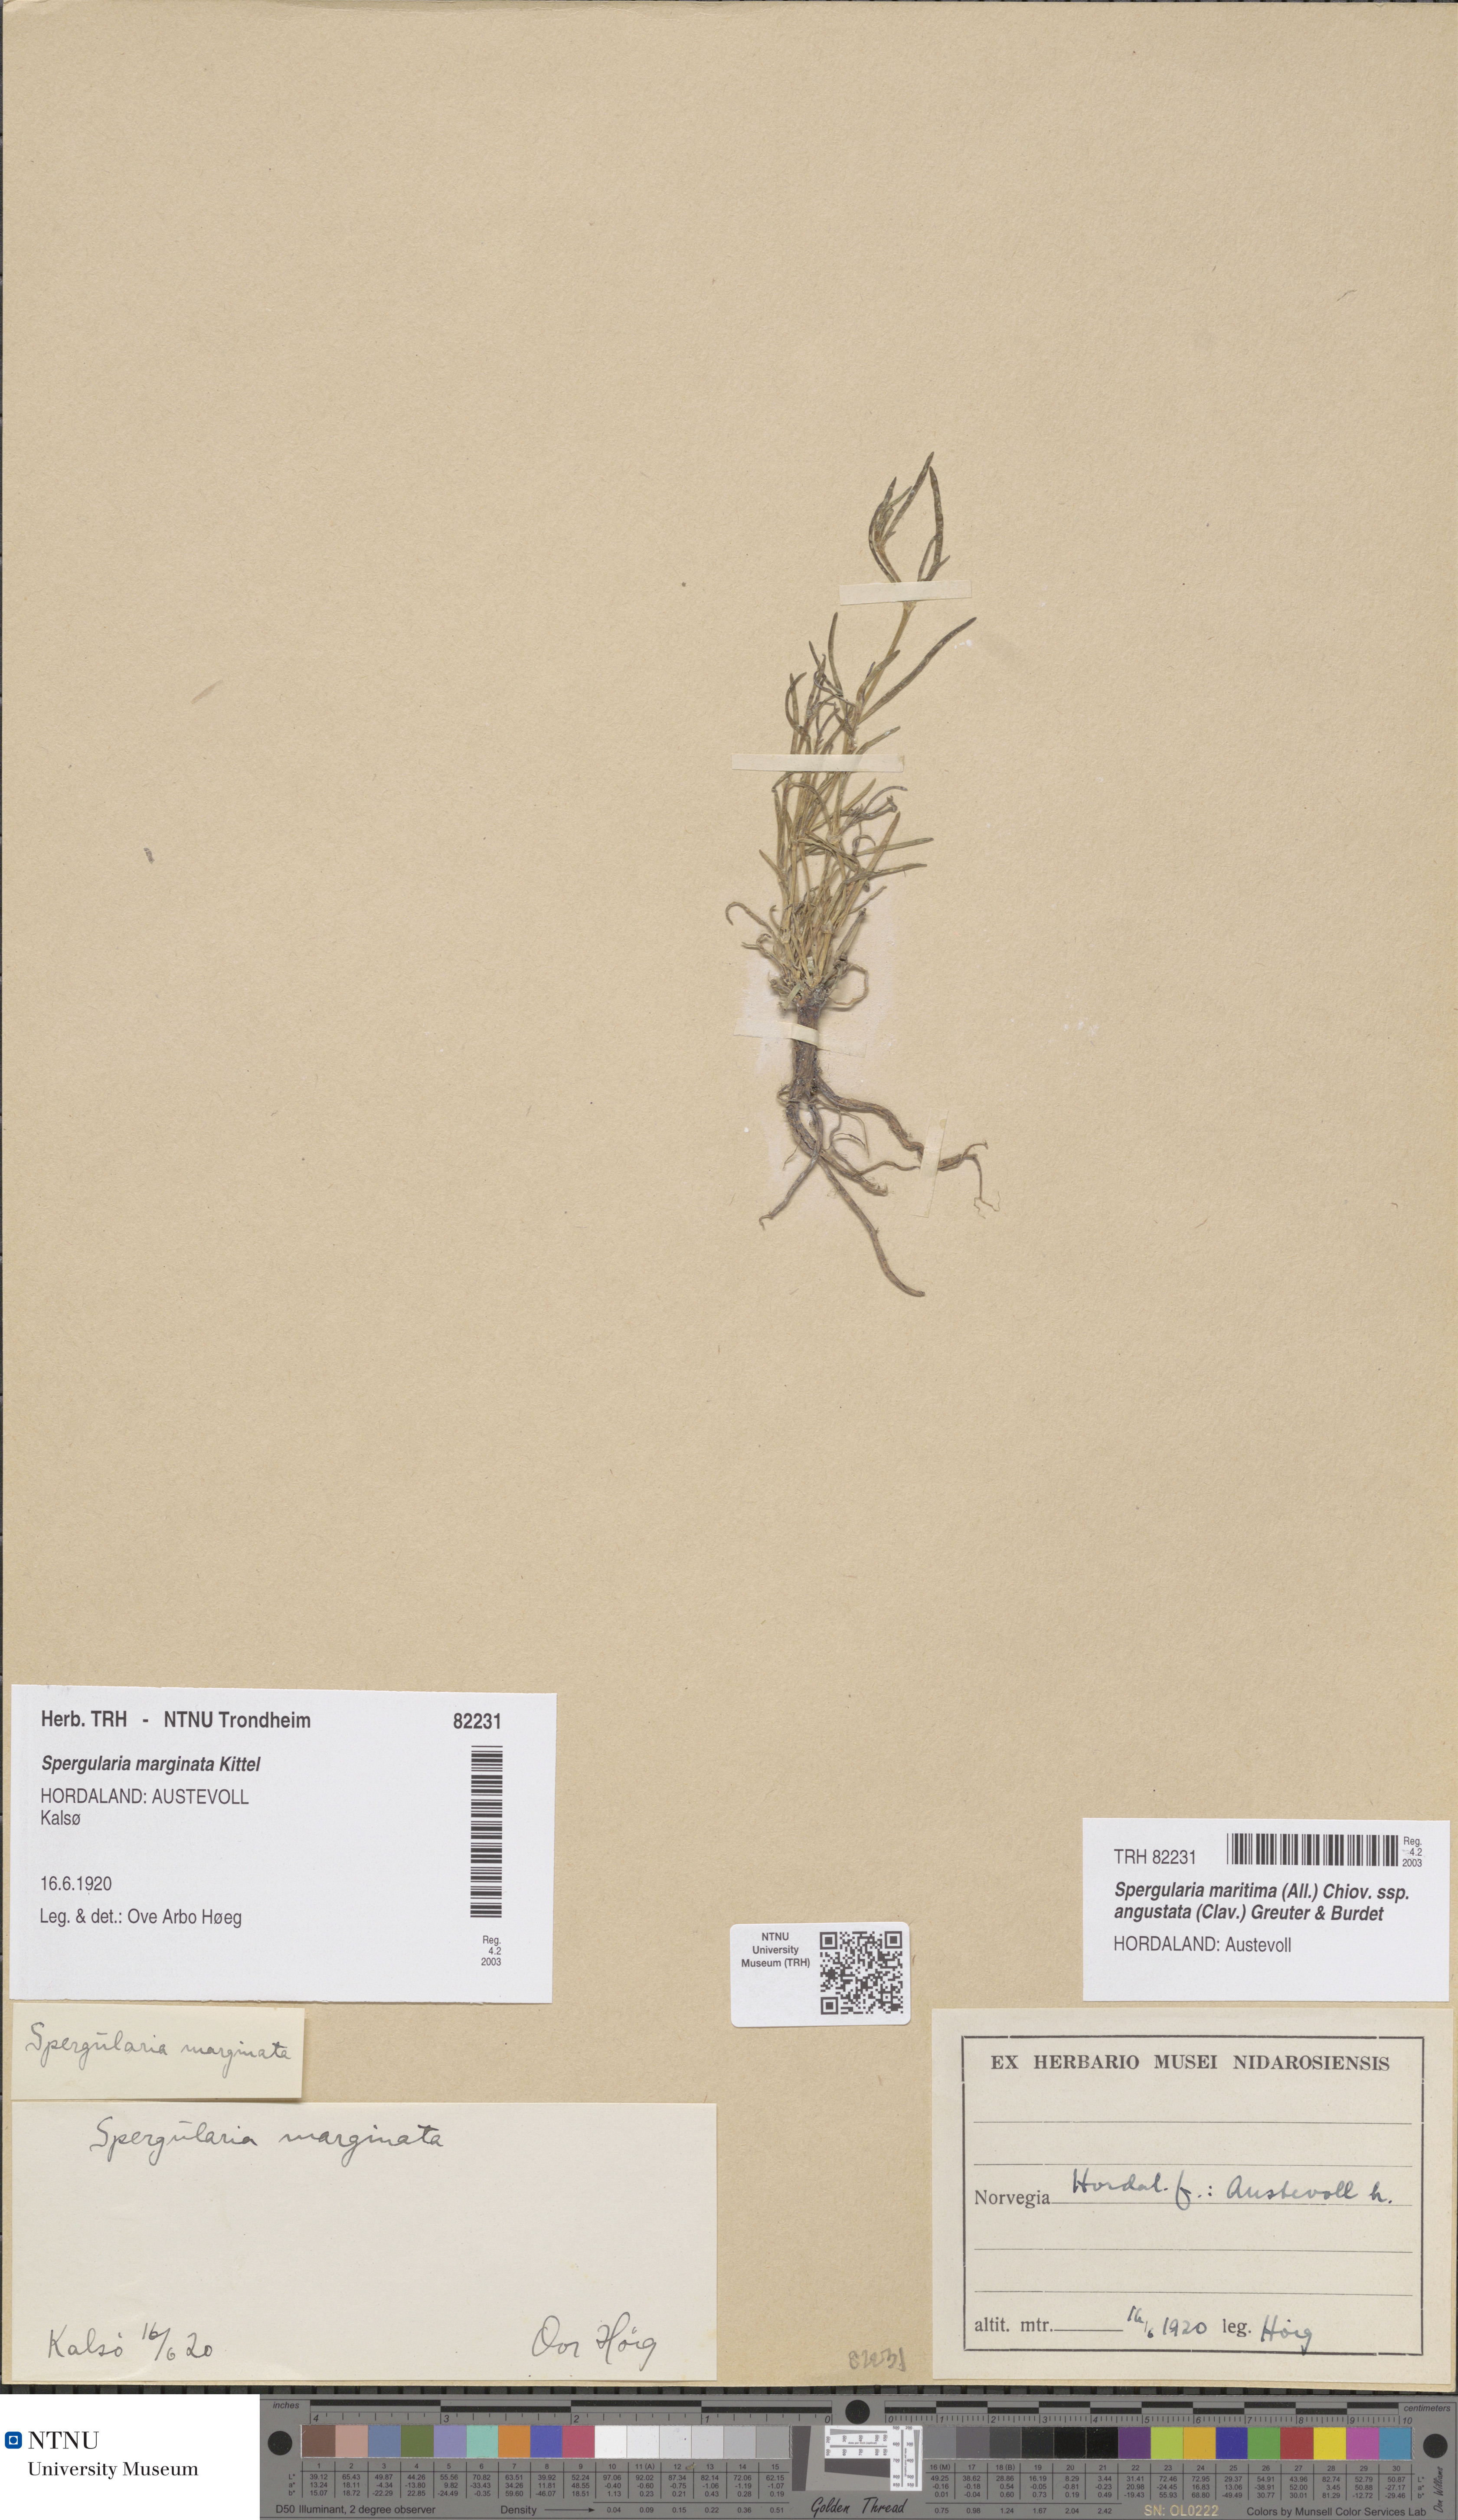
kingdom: Plantae
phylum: Tracheophyta
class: Magnoliopsida
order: Caryophyllales
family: Caryophyllaceae
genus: Spergularia
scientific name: Spergularia media
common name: Greater sea-spurrey
